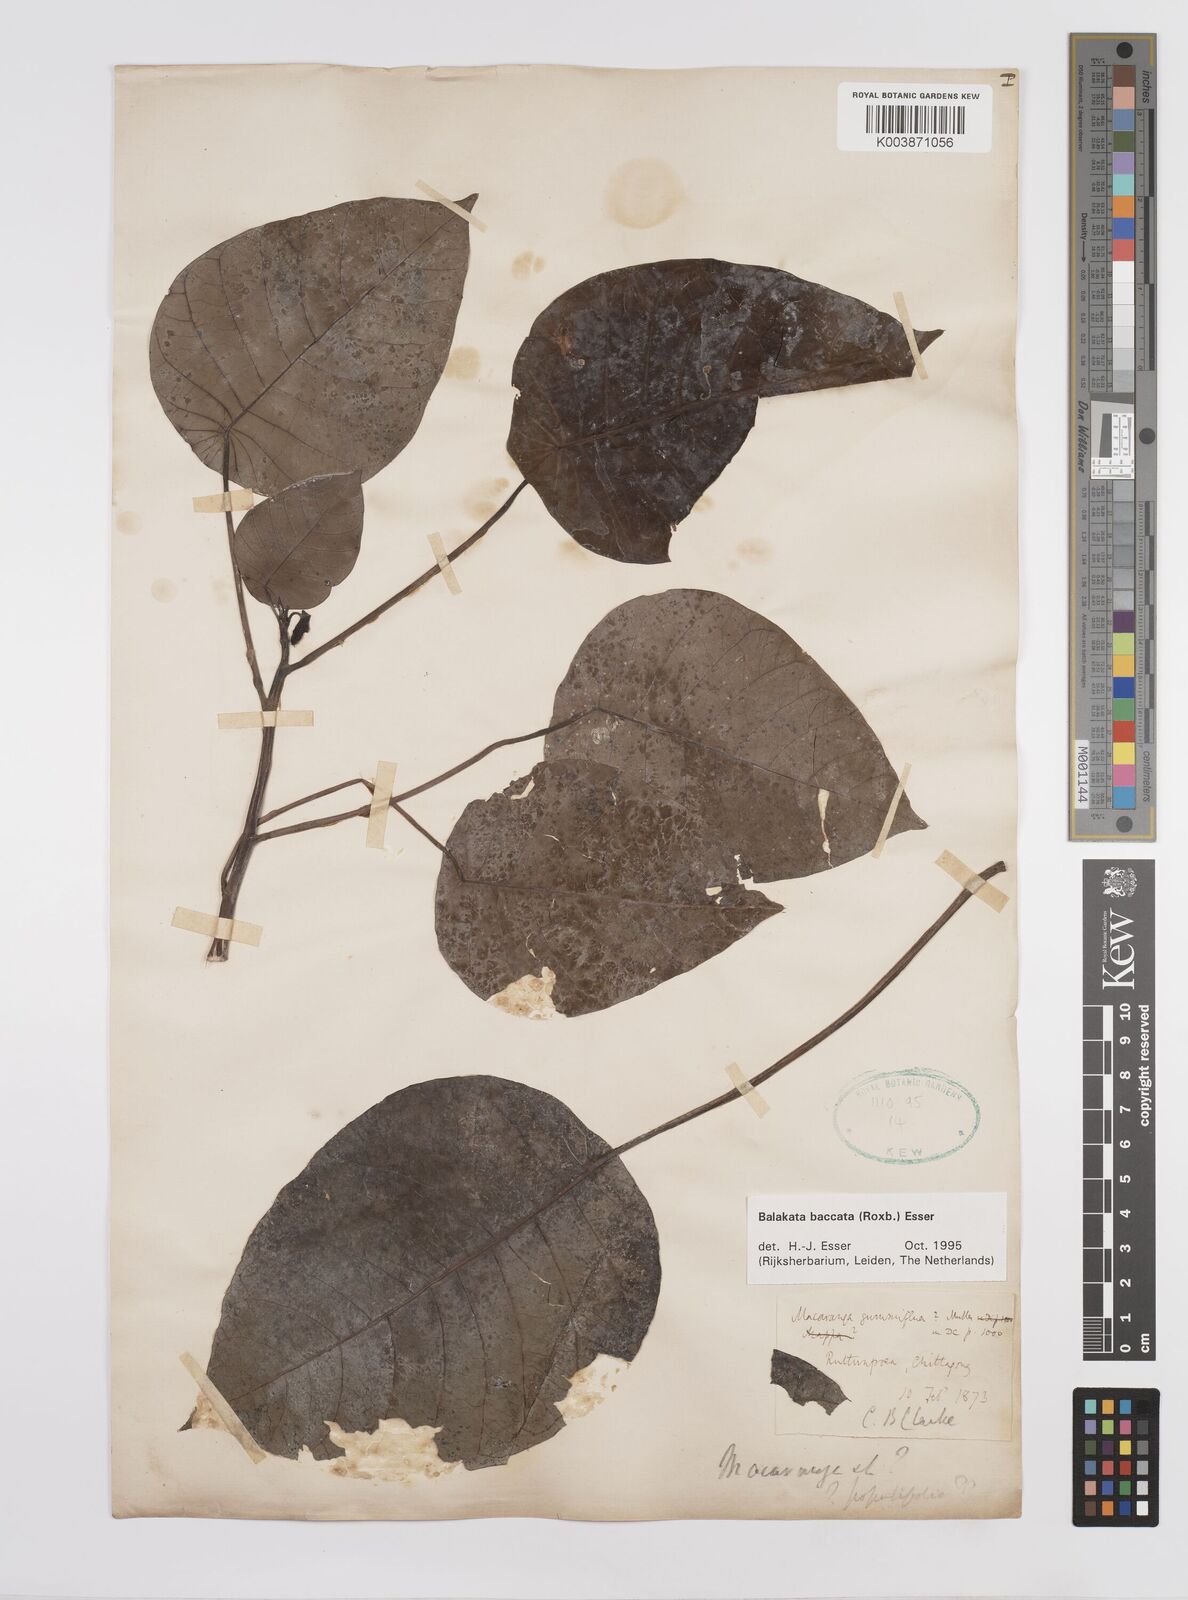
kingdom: Plantae
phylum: Tracheophyta
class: Magnoliopsida
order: Malpighiales
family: Euphorbiaceae
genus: Triadica
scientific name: Triadica sebifera
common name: Chinese tallow
